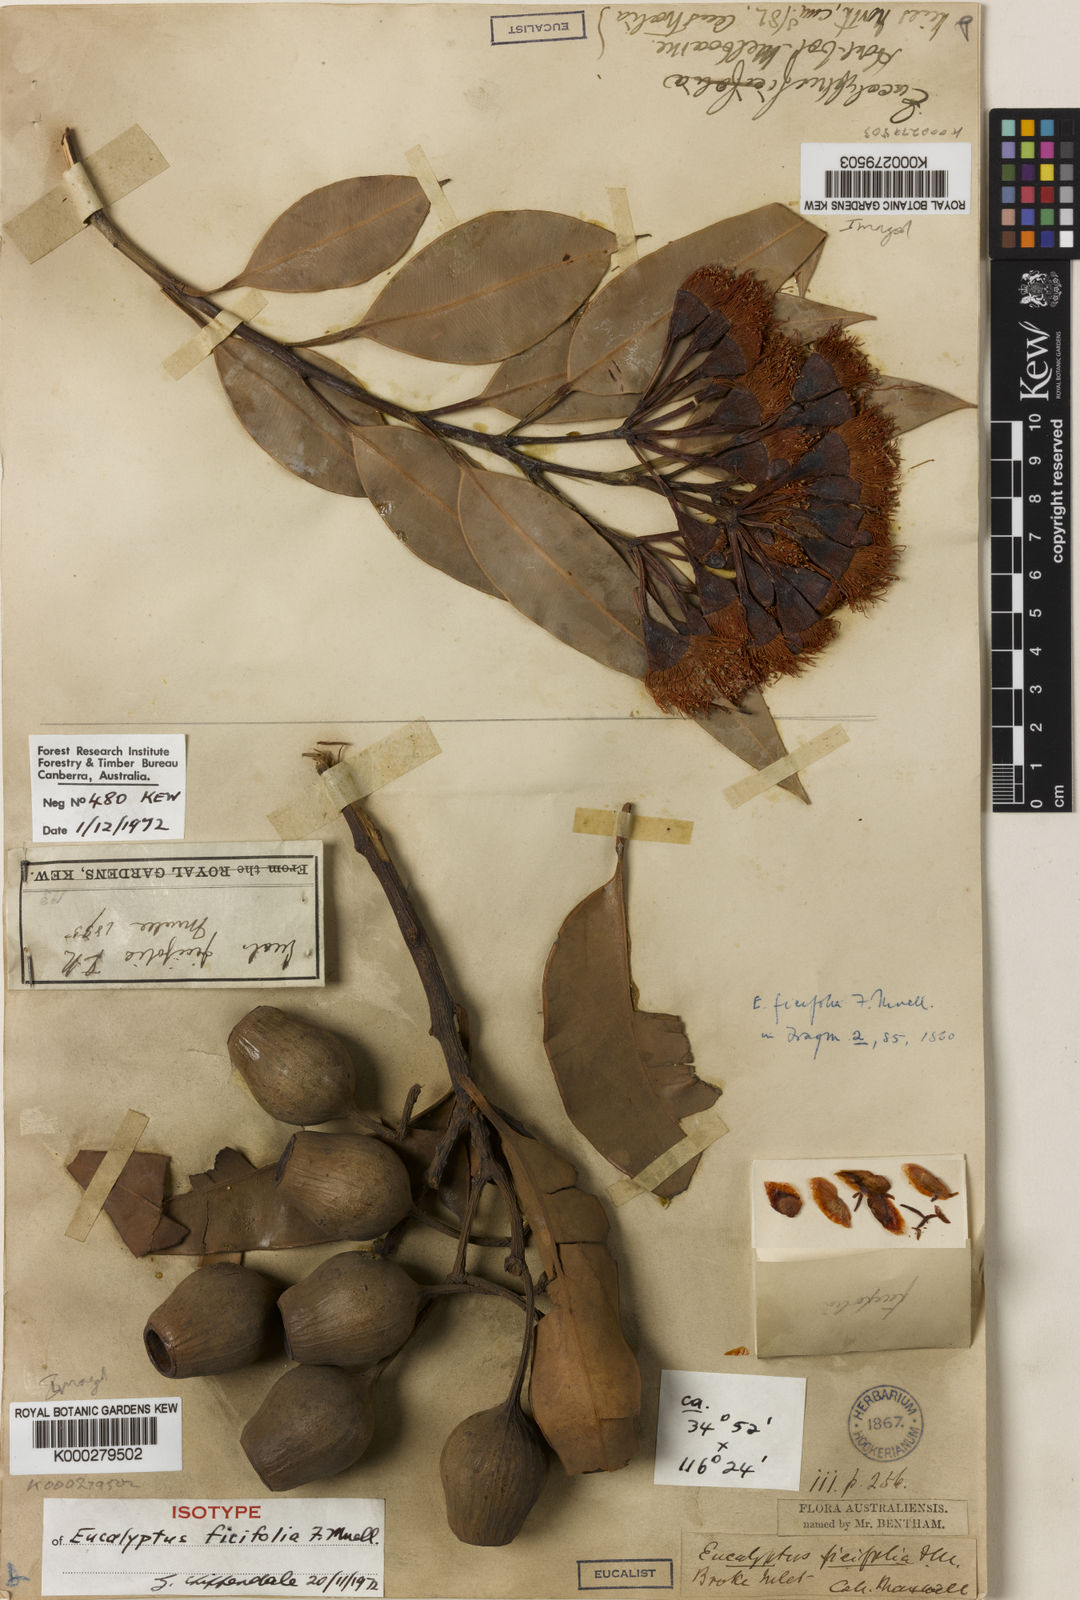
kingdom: Plantae
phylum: Tracheophyta
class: Magnoliopsida
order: Myrtales
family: Myrtaceae
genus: Corymbia
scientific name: Corymbia ficifolia
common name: Redflower gum
